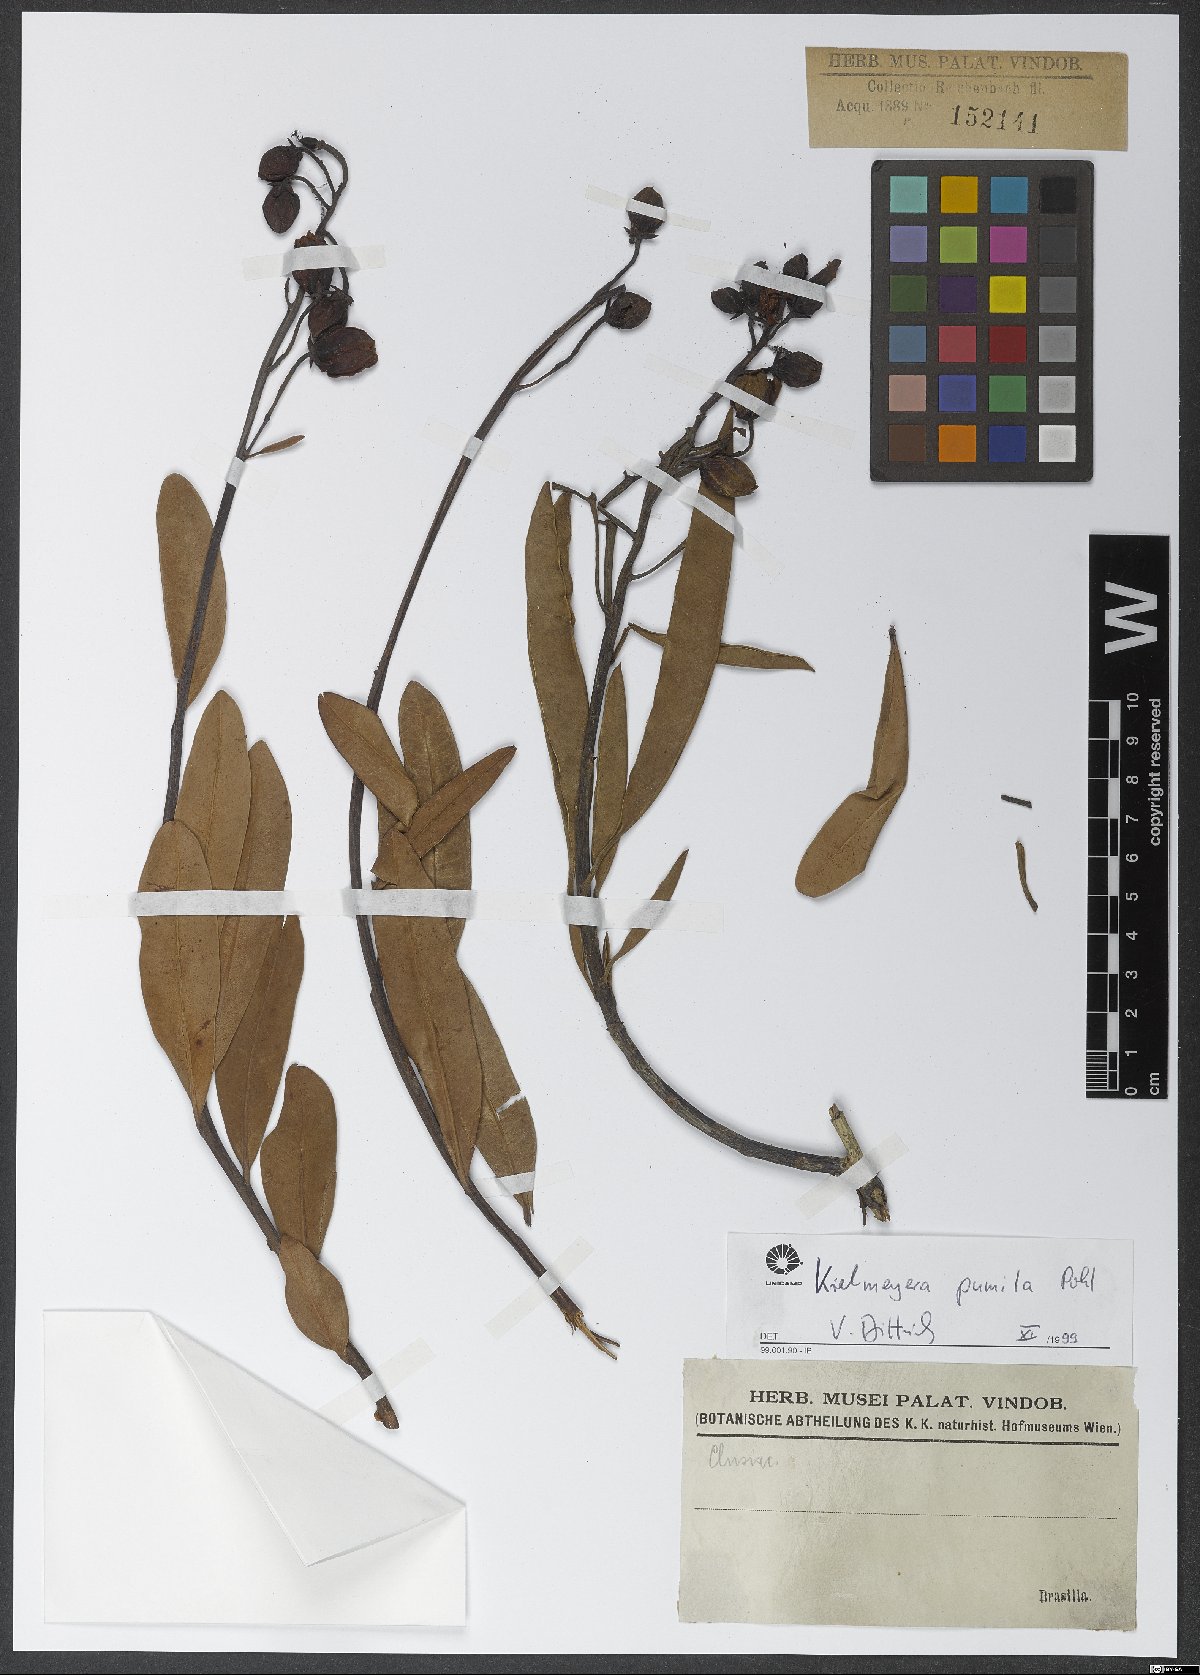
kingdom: Plantae
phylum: Tracheophyta
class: Magnoliopsida
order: Malpighiales
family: Calophyllaceae
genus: Kielmeyera
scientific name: Kielmeyera pumila
